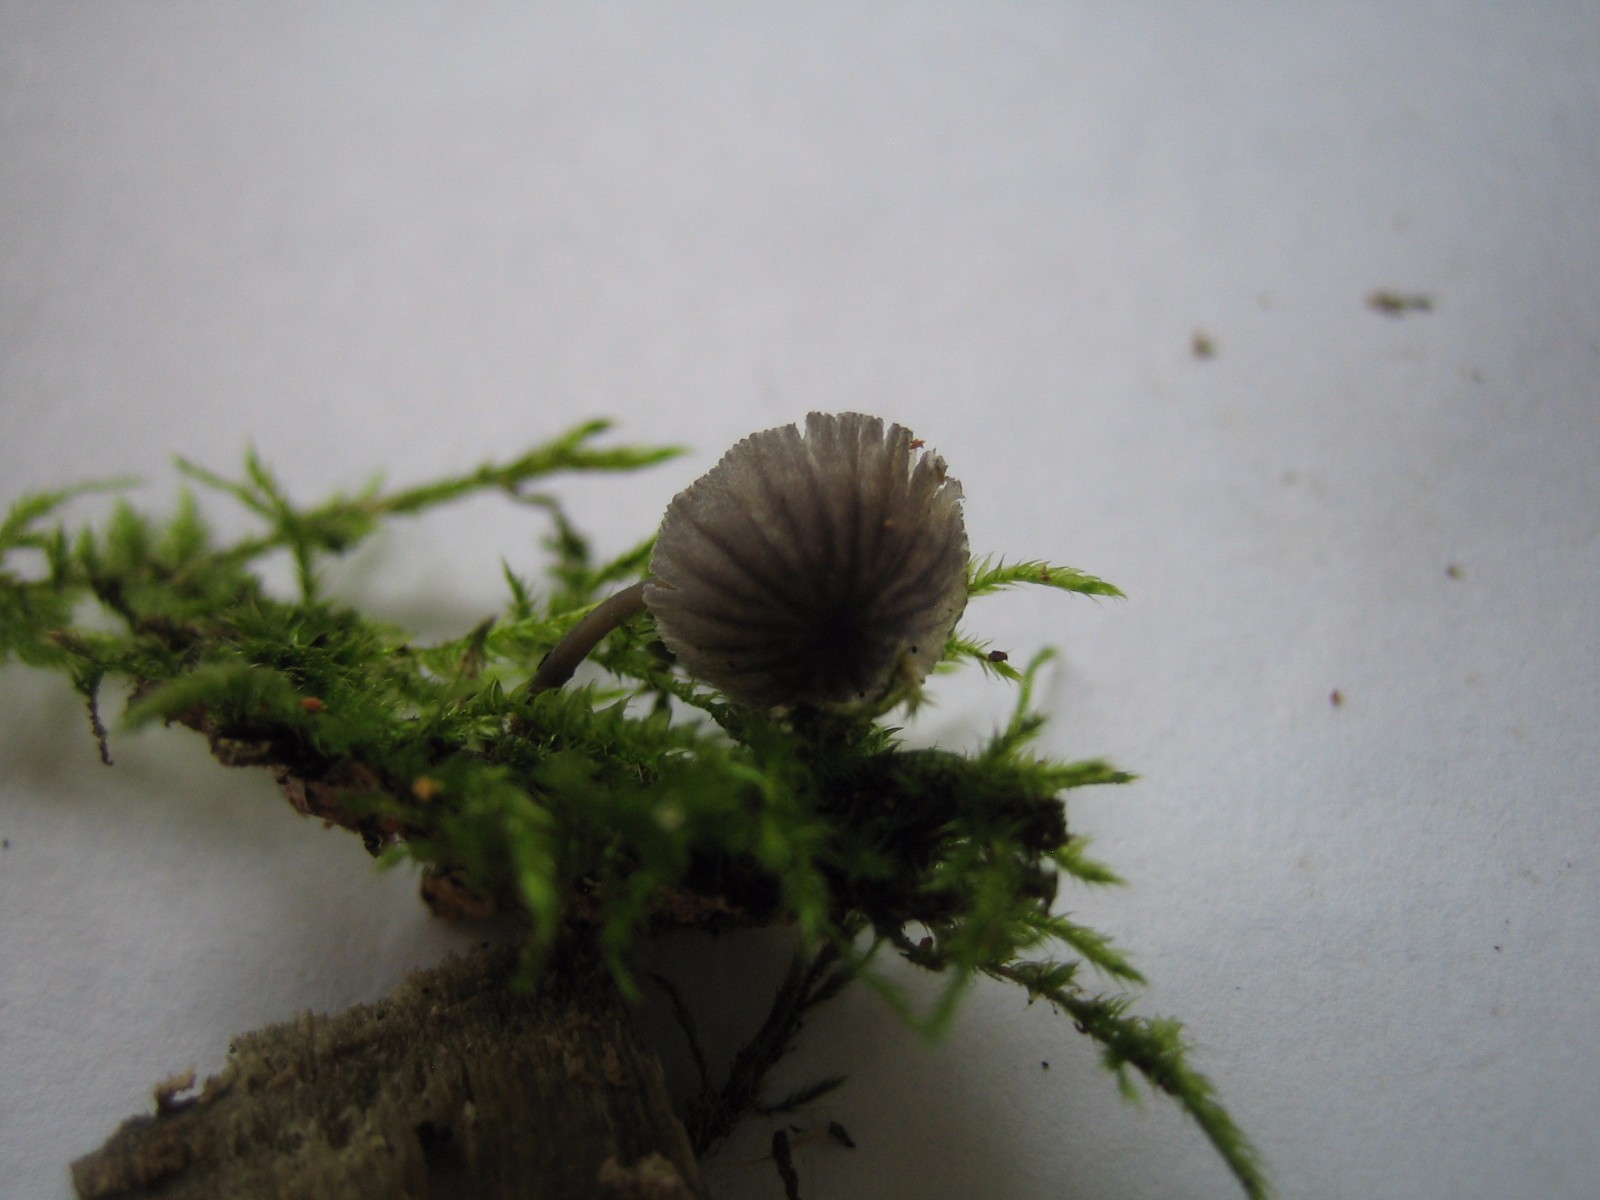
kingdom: Fungi
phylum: Basidiomycota
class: Agaricomycetes
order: Agaricales
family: Mycenaceae
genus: Mycena
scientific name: Mycena
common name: huesvamp
